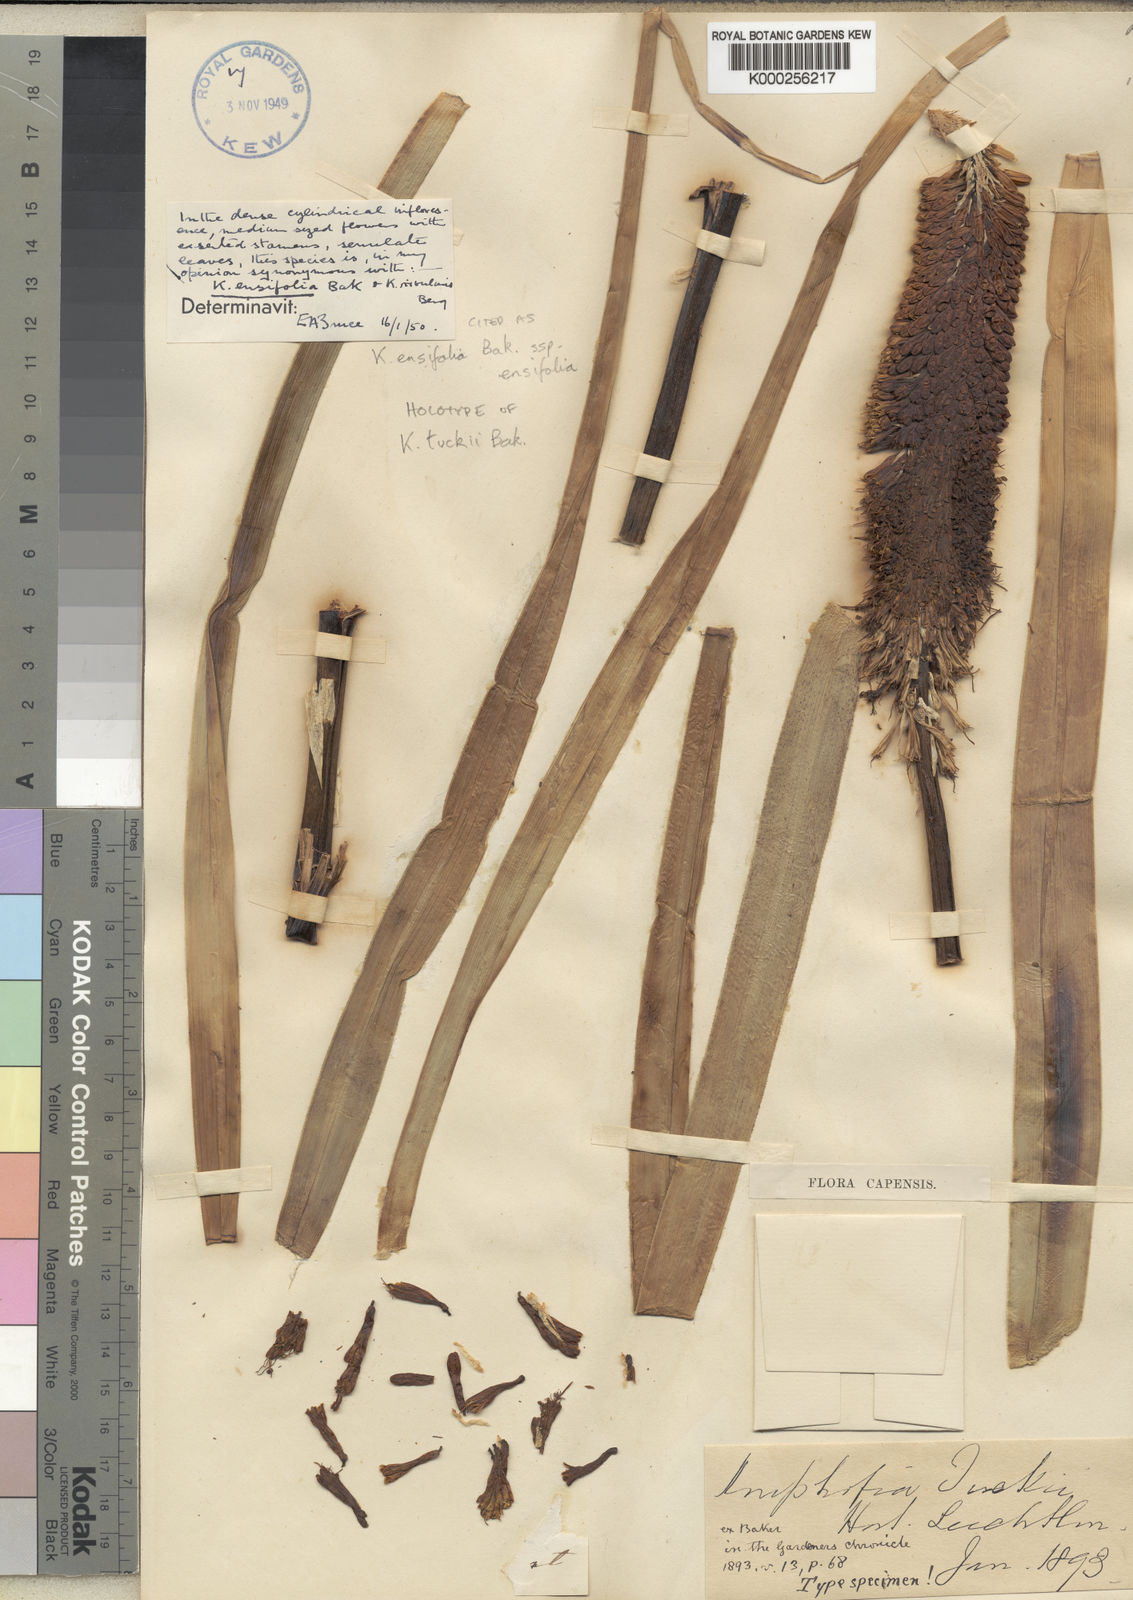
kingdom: Plantae
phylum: Tracheophyta
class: Liliopsida
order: Asparagales
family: Asphodelaceae
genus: Kniphofia
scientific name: Kniphofia ensifolia
